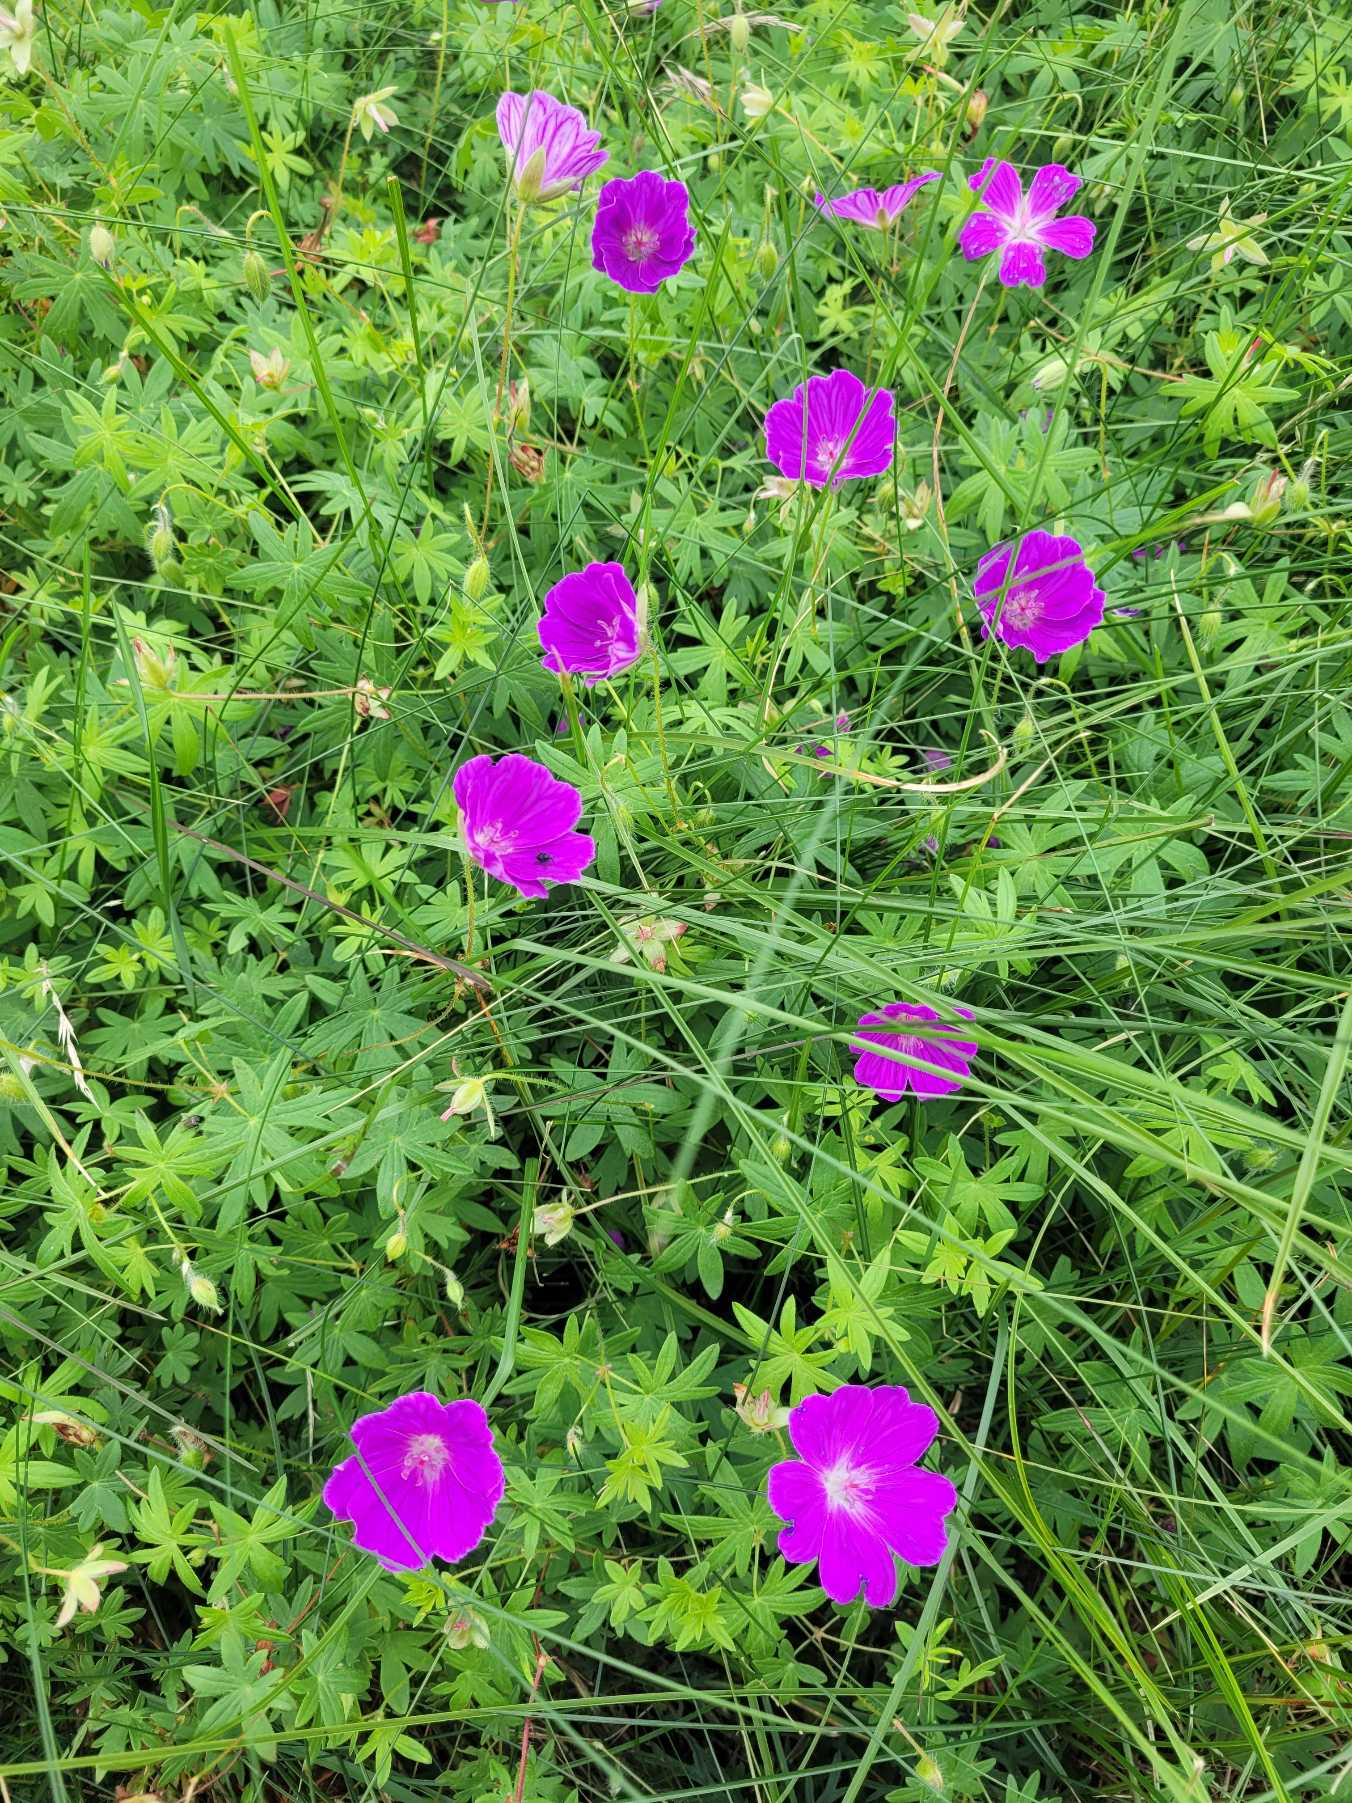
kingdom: Plantae
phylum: Tracheophyta
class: Magnoliopsida
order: Geraniales
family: Geraniaceae
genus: Geranium
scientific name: Geranium sanguineum
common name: Blodrød storkenæb
